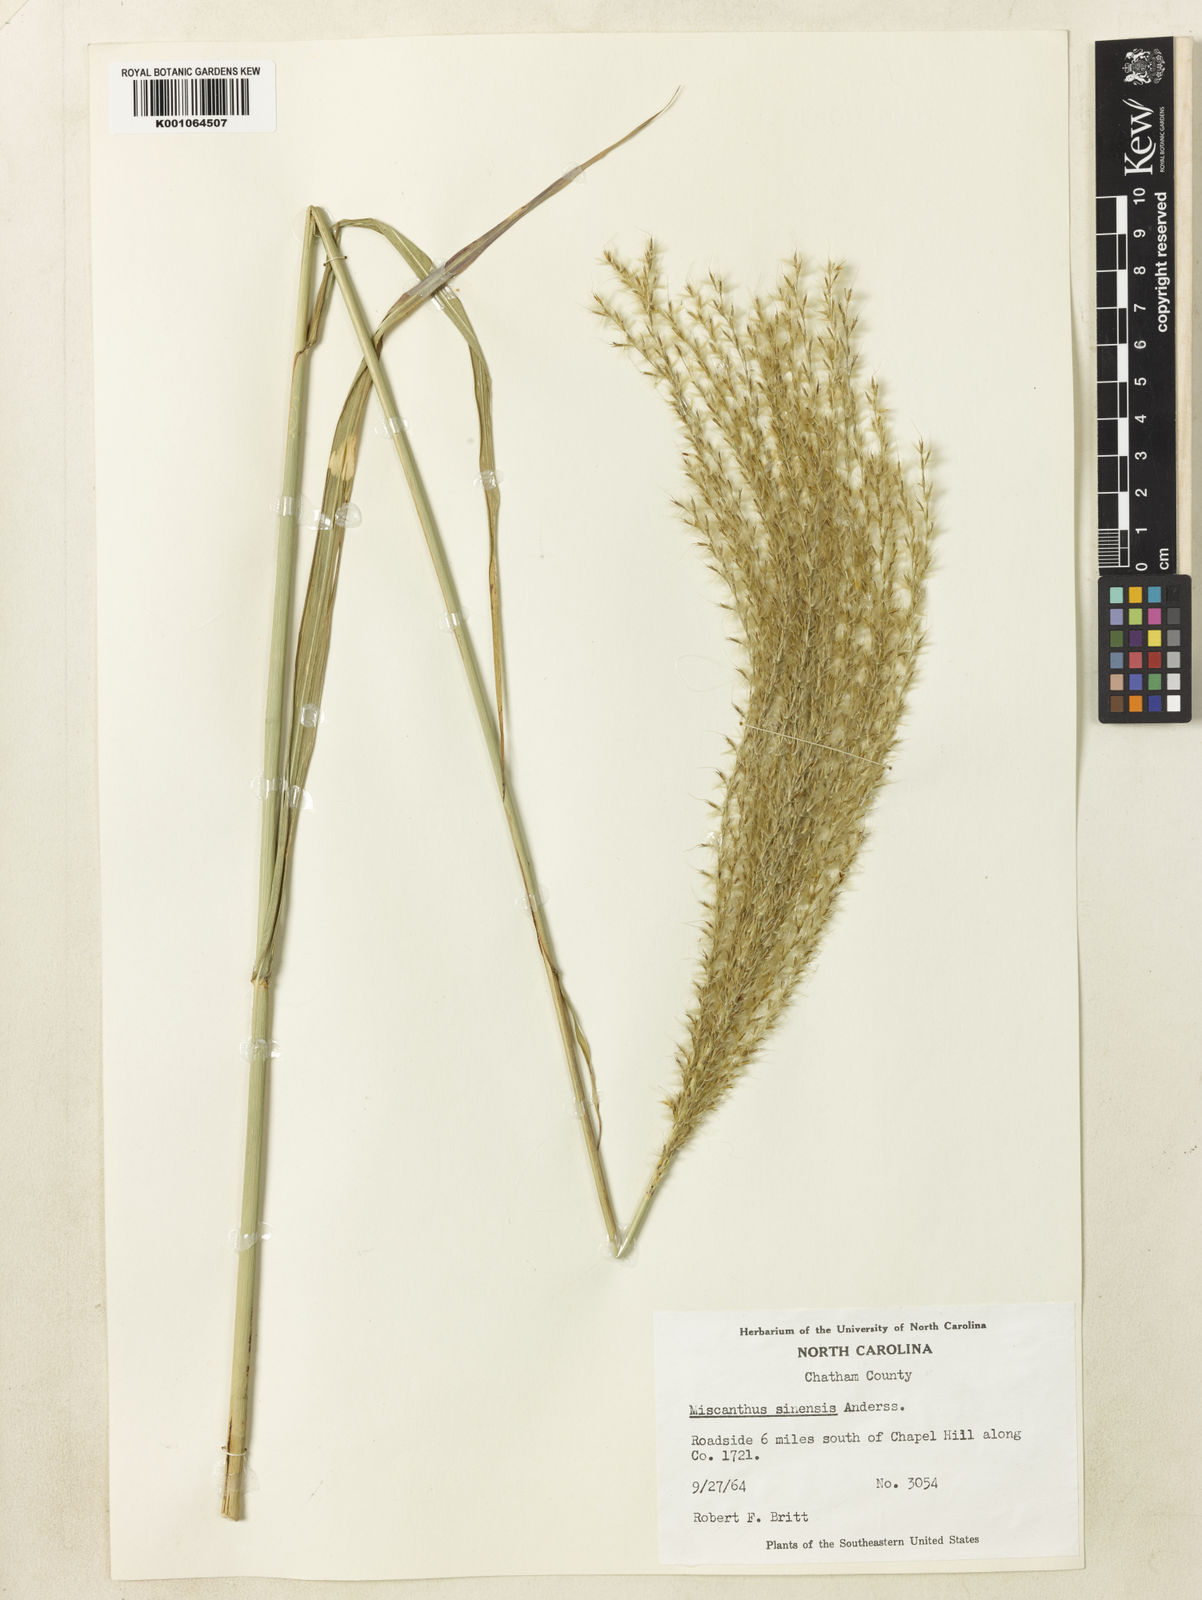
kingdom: Plantae
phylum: Tracheophyta
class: Liliopsida
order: Poales
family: Poaceae
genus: Miscanthus
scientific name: Miscanthus sinensis
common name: Chinese silvergrass
